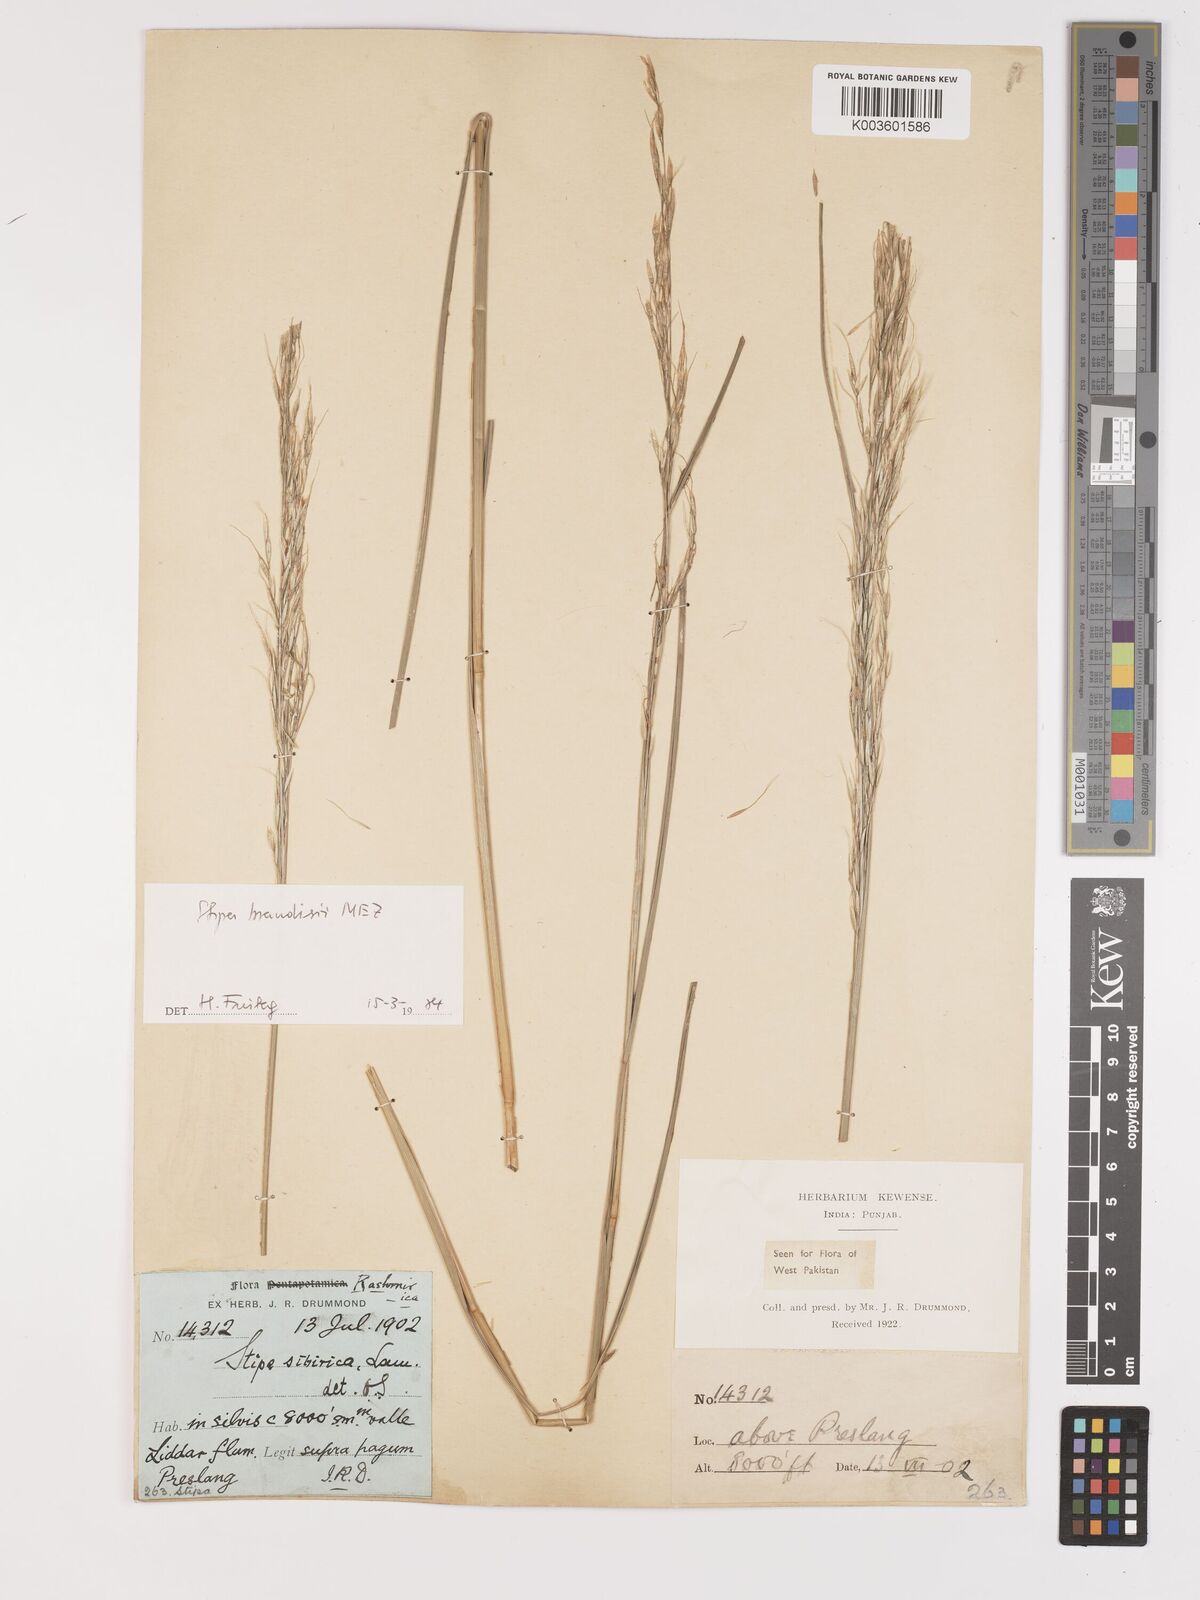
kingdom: Plantae
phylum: Tracheophyta
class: Liliopsida
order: Poales
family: Poaceae
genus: Achnatherum
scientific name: Achnatherum brandisii
